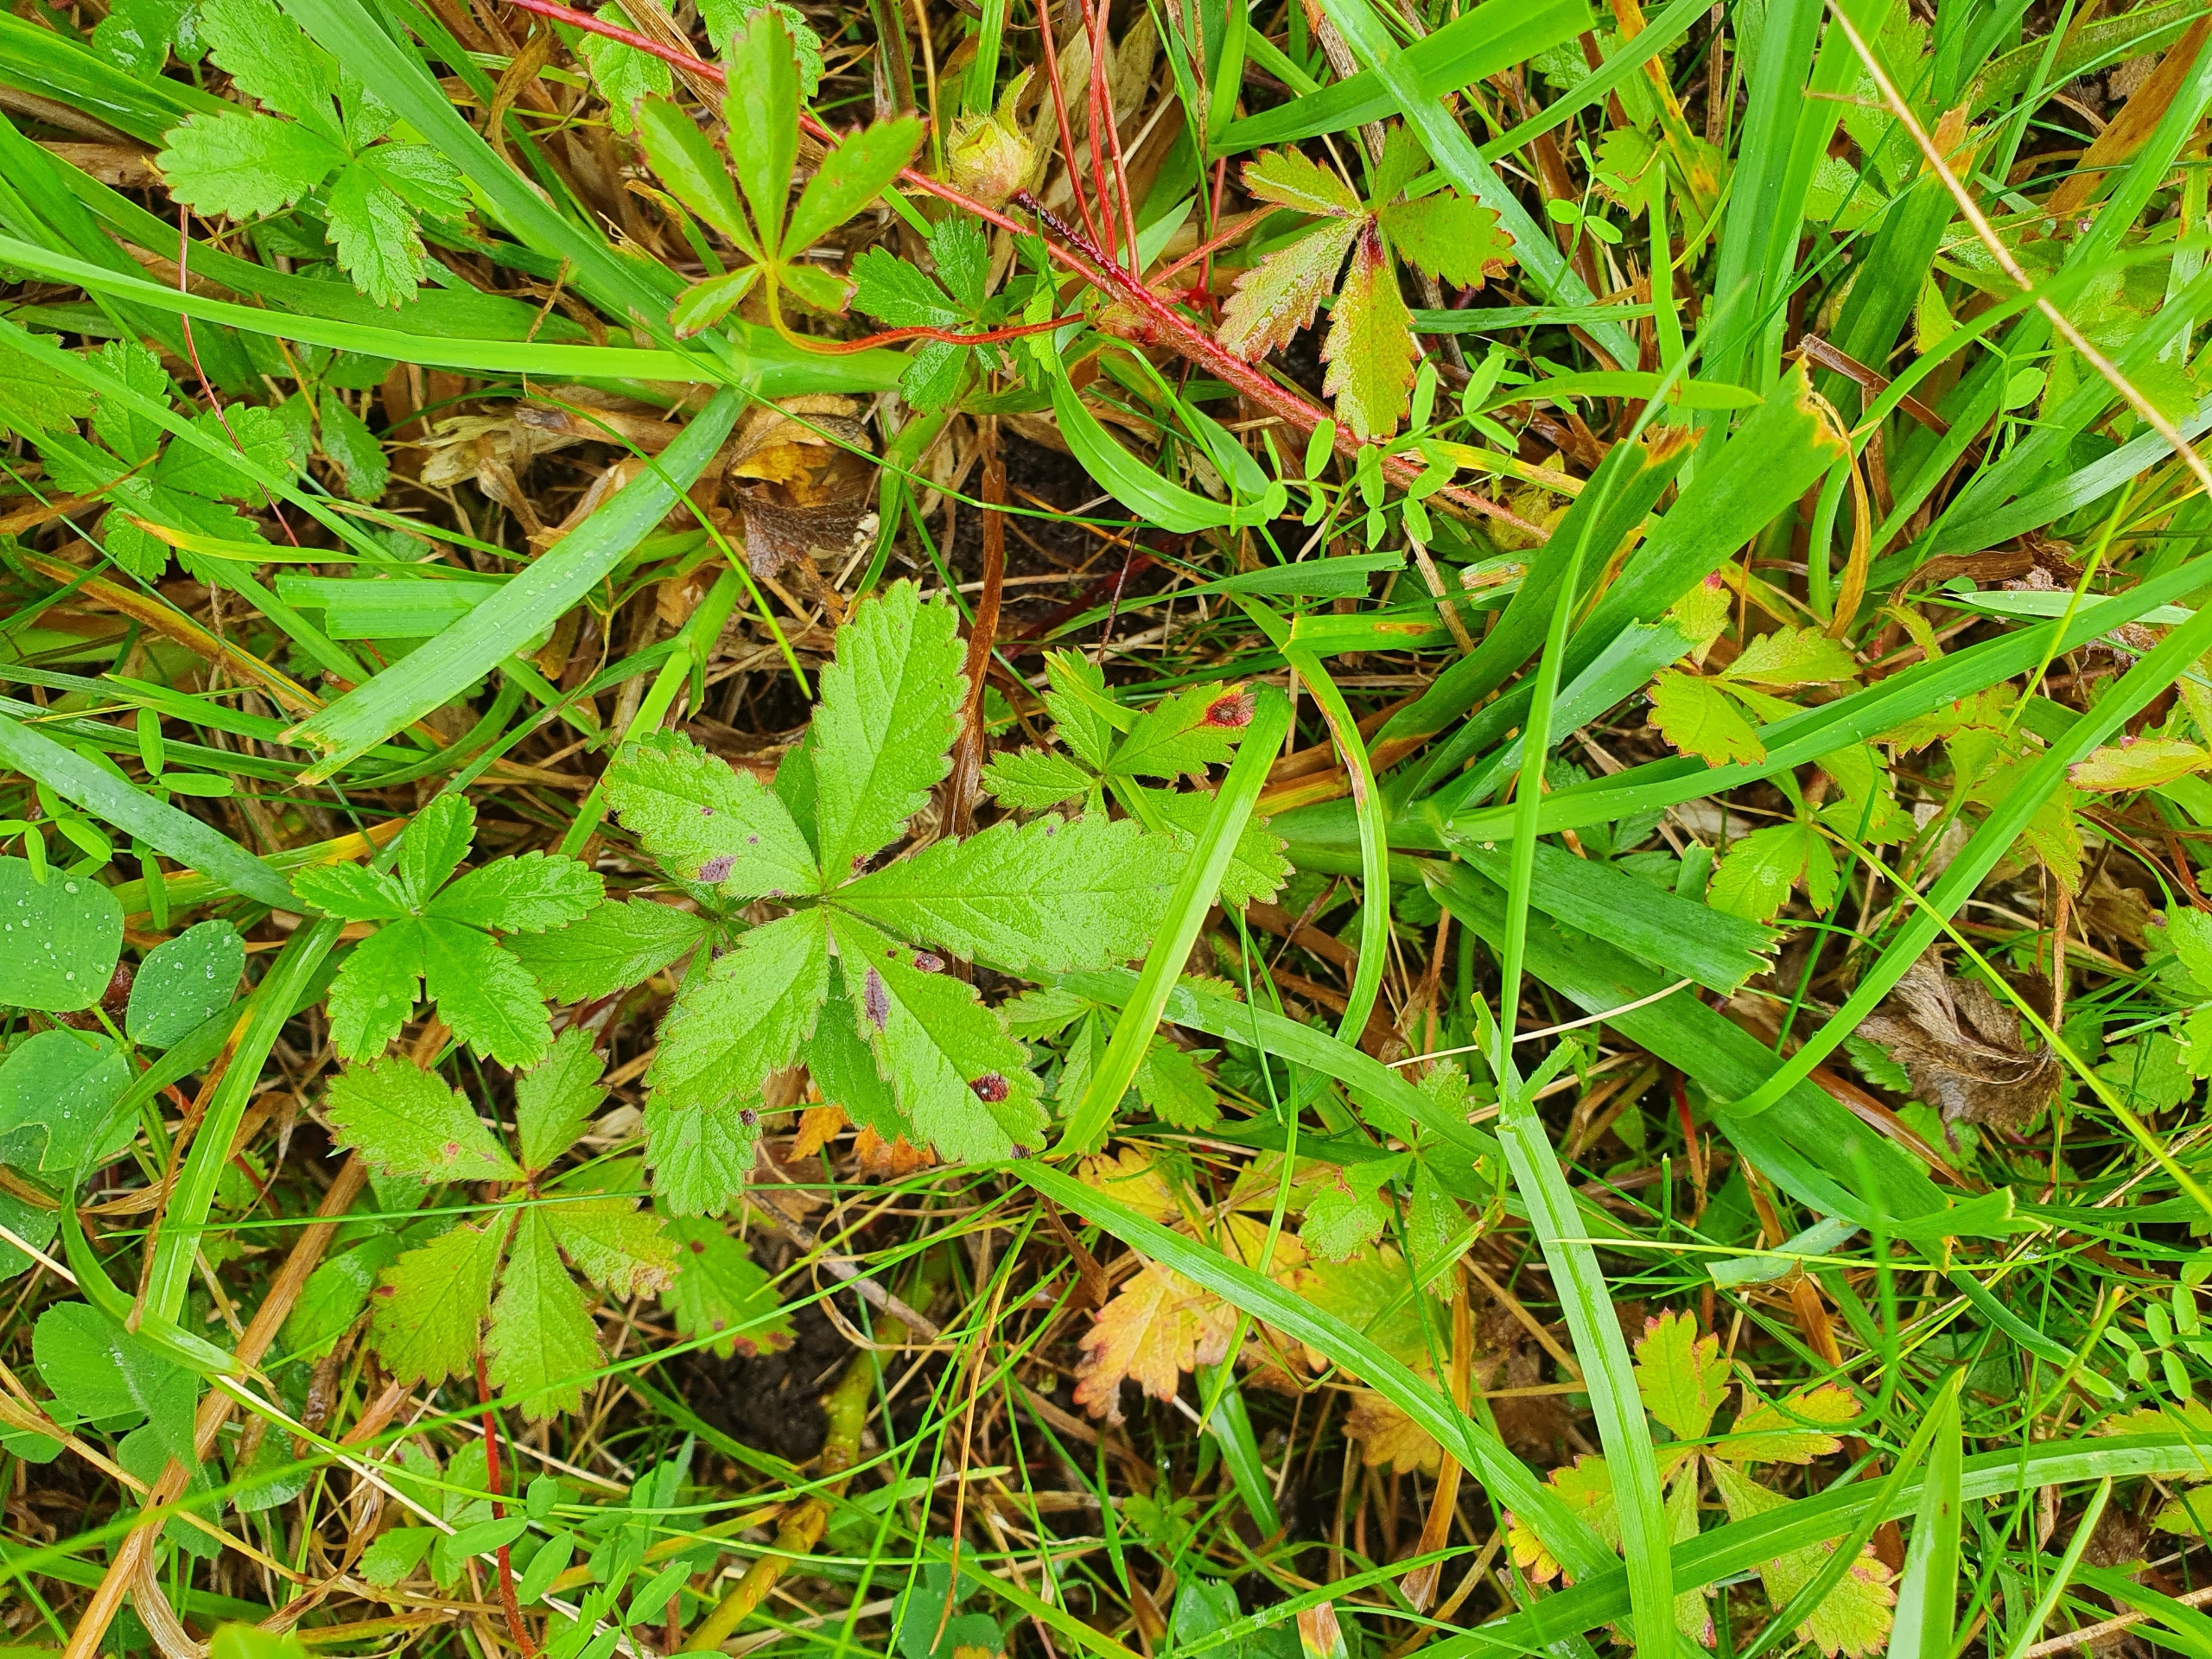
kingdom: Plantae
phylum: Tracheophyta
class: Magnoliopsida
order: Rosales
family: Rosaceae
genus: Potentilla
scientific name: Potentilla reptans
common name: Krybende potentil
